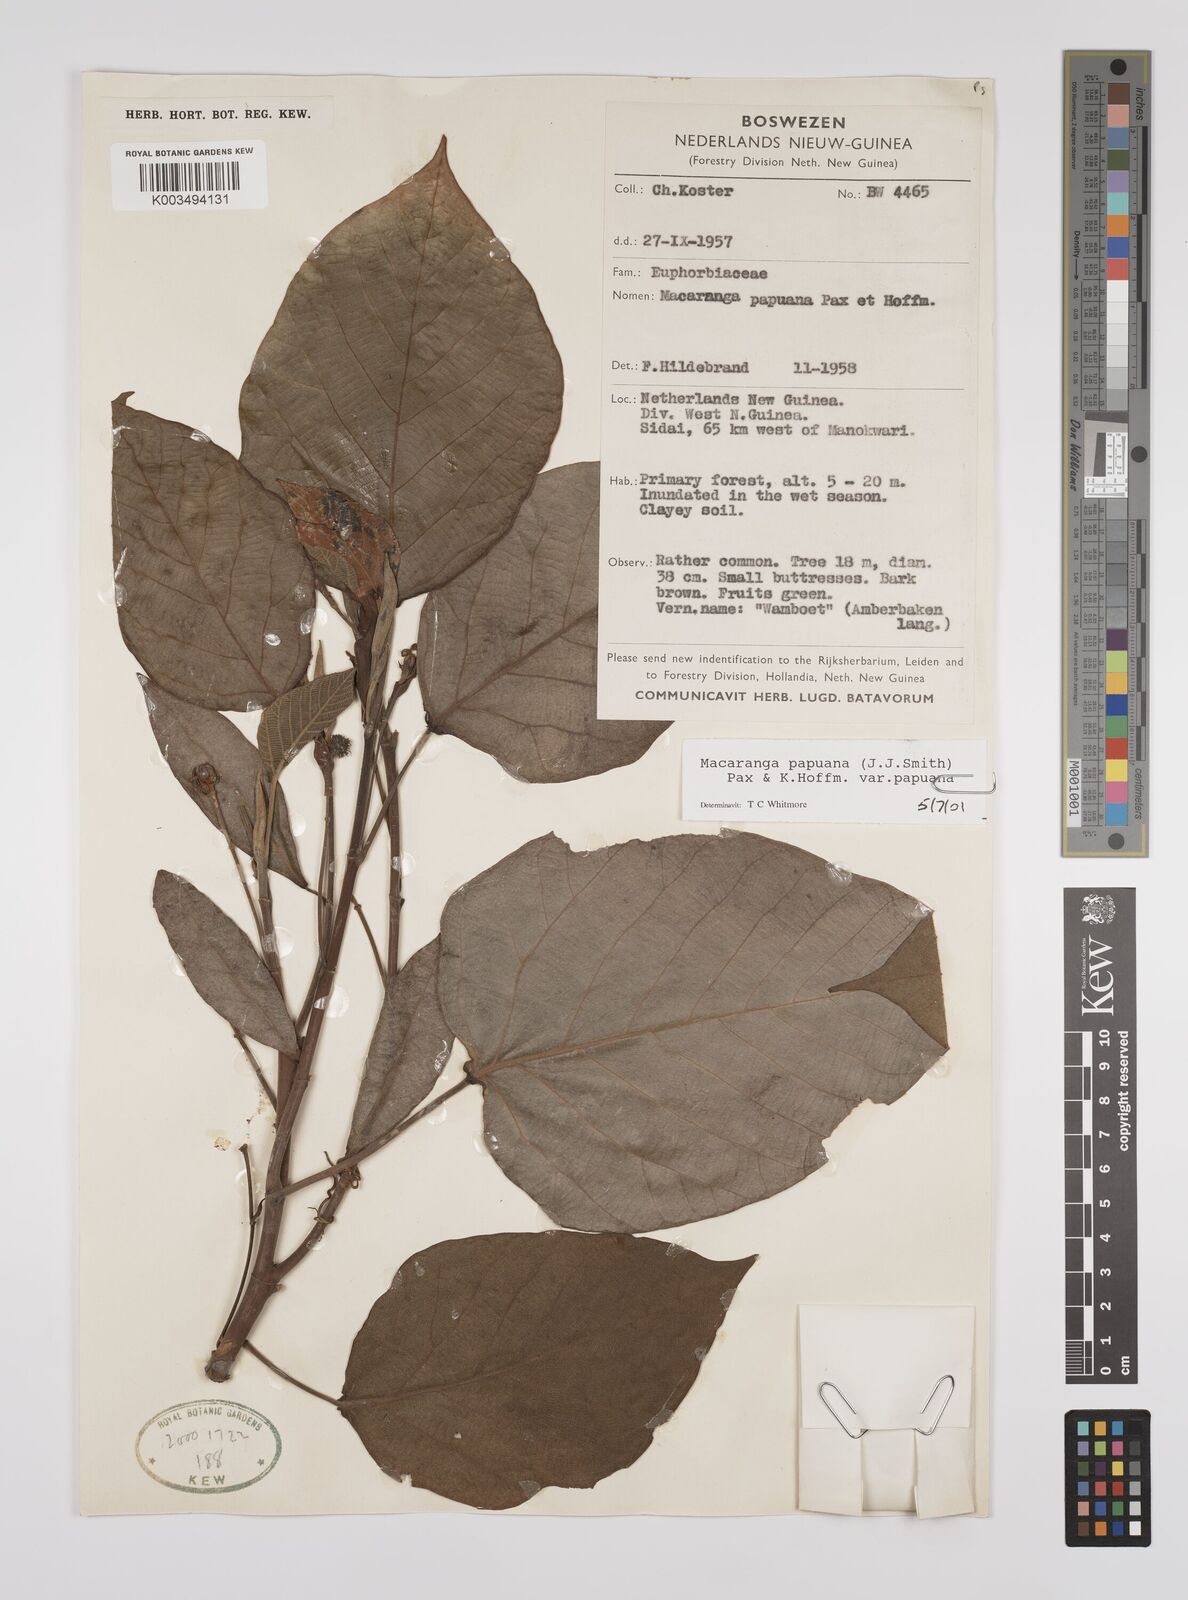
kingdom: Plantae
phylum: Tracheophyta
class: Magnoliopsida
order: Malpighiales
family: Euphorbiaceae
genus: Macaranga
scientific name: Macaranga aleuritoides
